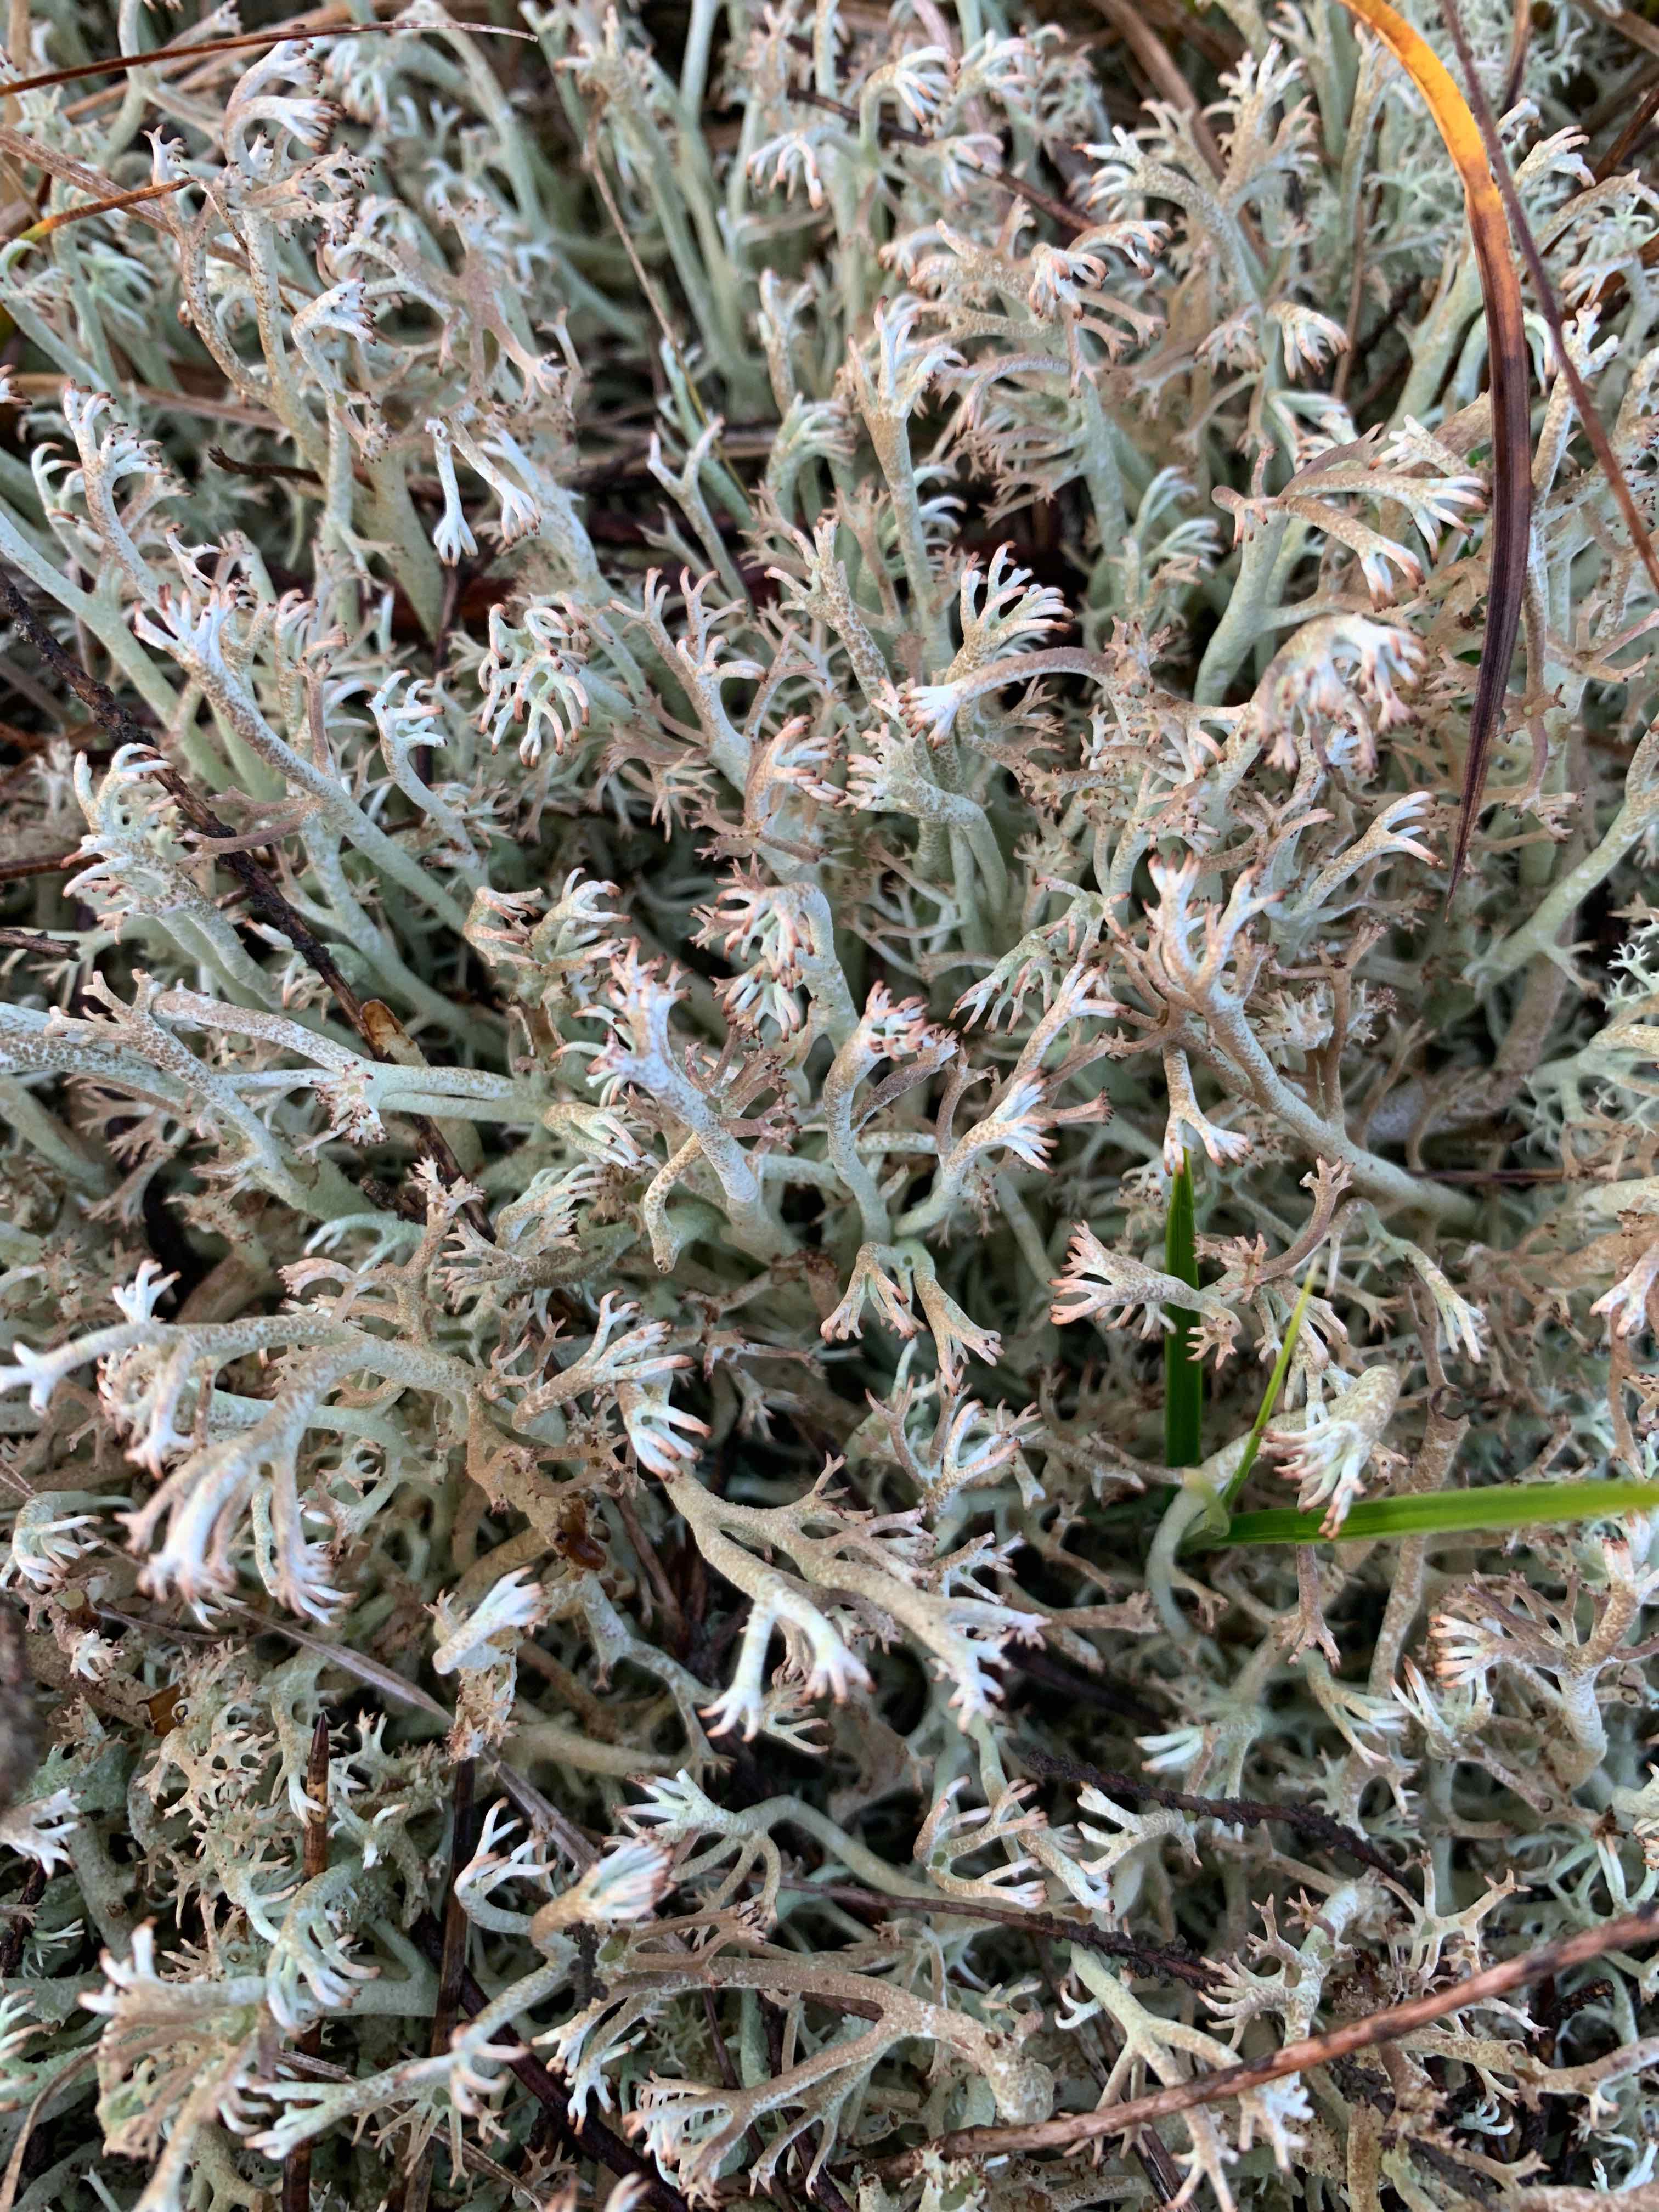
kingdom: Fungi
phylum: Ascomycota
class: Lecanoromycetes
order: Lecanorales
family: Cladoniaceae
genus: Cladonia
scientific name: Cladonia rangiferina
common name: askegrå rensdyrlav
